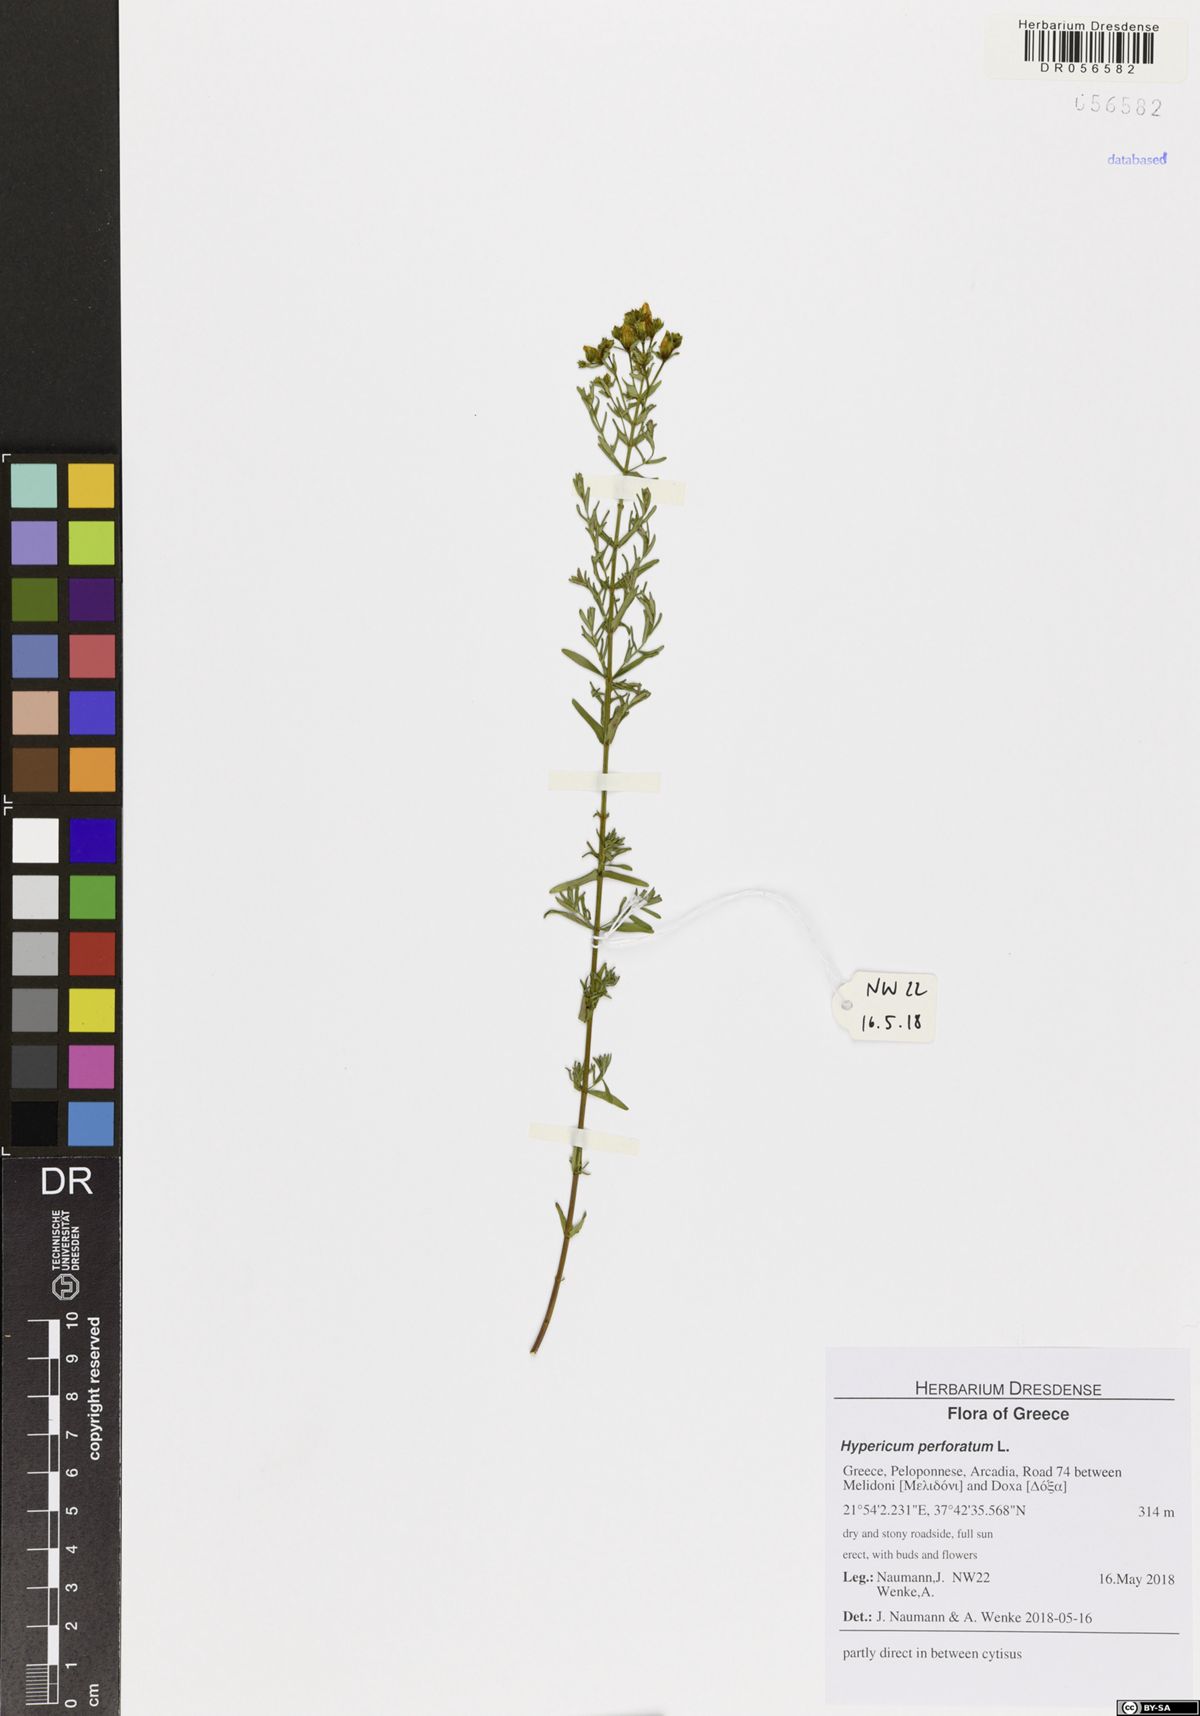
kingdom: Plantae
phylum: Tracheophyta
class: Magnoliopsida
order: Malpighiales
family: Hypericaceae
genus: Hypericum
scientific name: Hypericum perforatum
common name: Common st. johnswort
